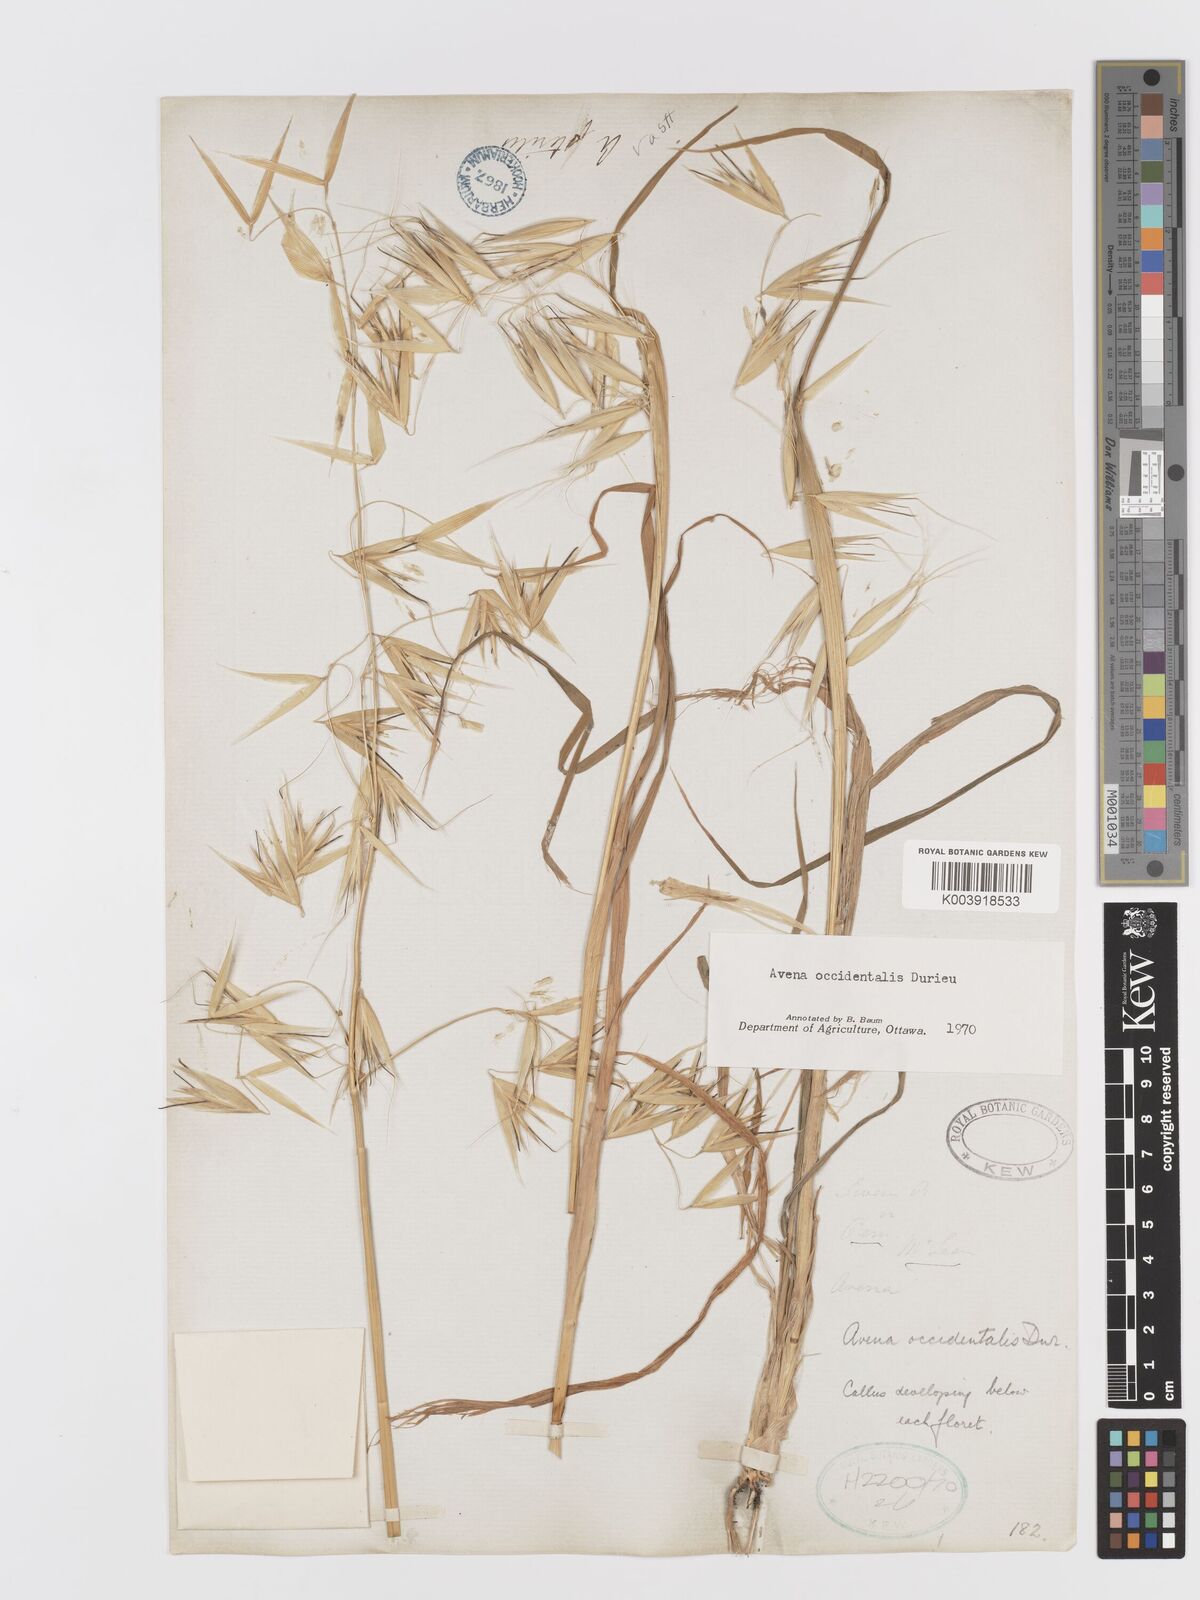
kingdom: Plantae
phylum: Tracheophyta
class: Liliopsida
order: Poales
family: Poaceae
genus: Avena
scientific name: Avena fatua
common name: Wild oat
